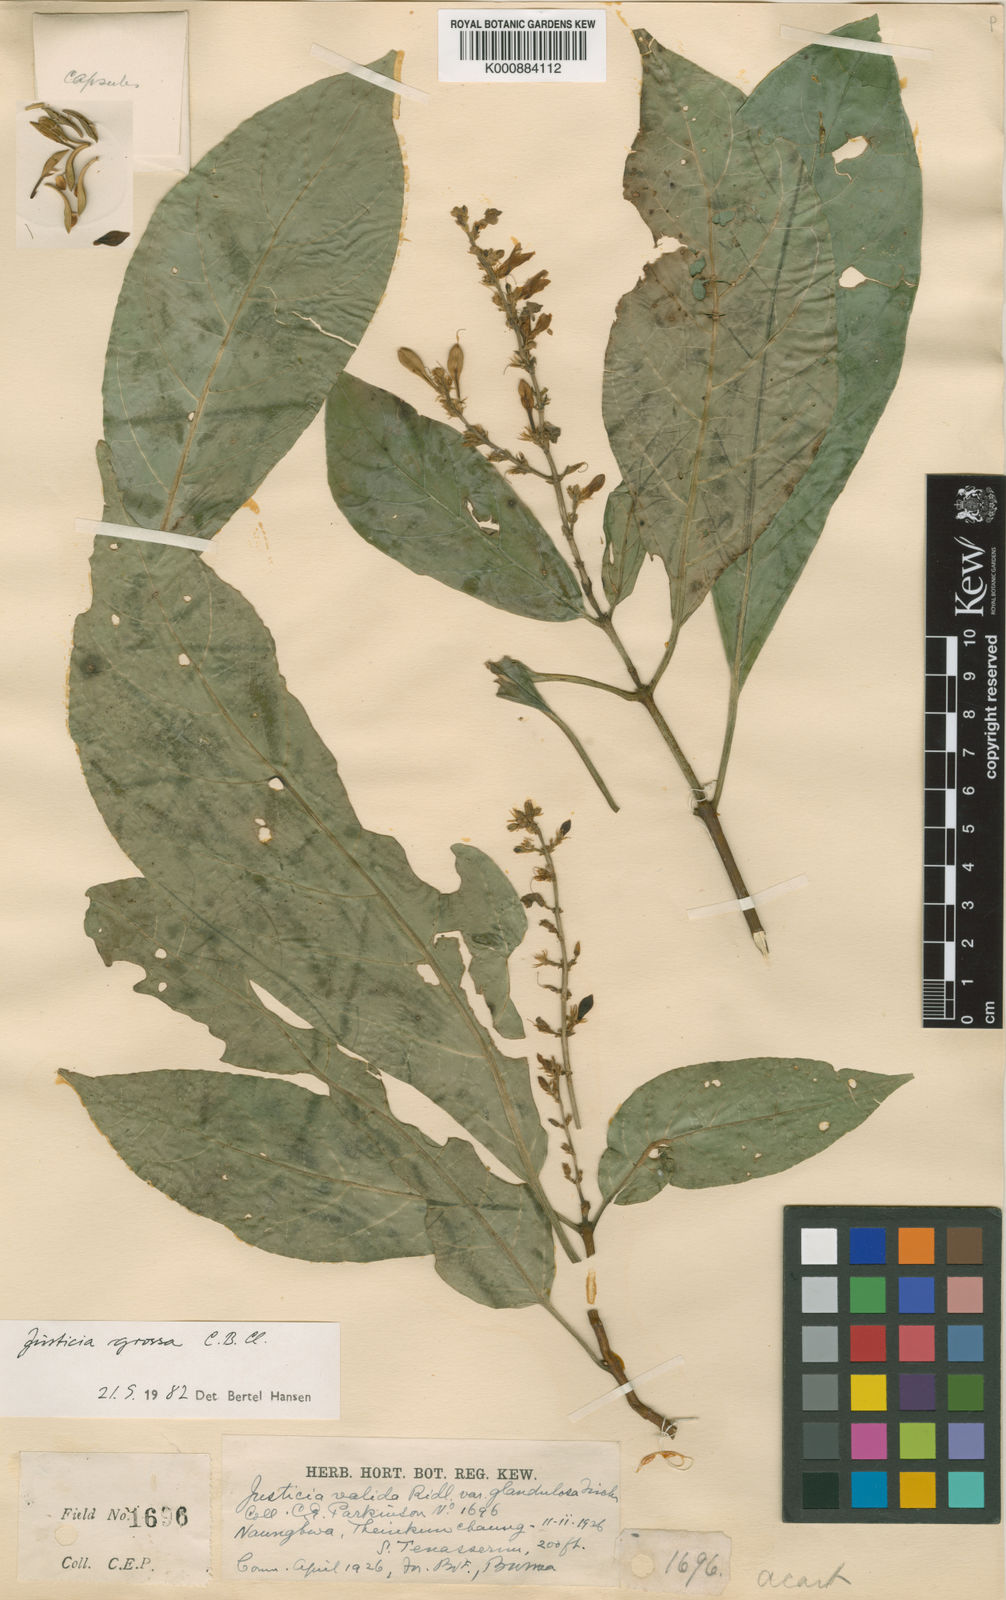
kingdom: Plantae
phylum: Tracheophyta
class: Magnoliopsida
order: Lamiales
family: Acanthaceae
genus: Ecbolium
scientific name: Ecbolium grossum
